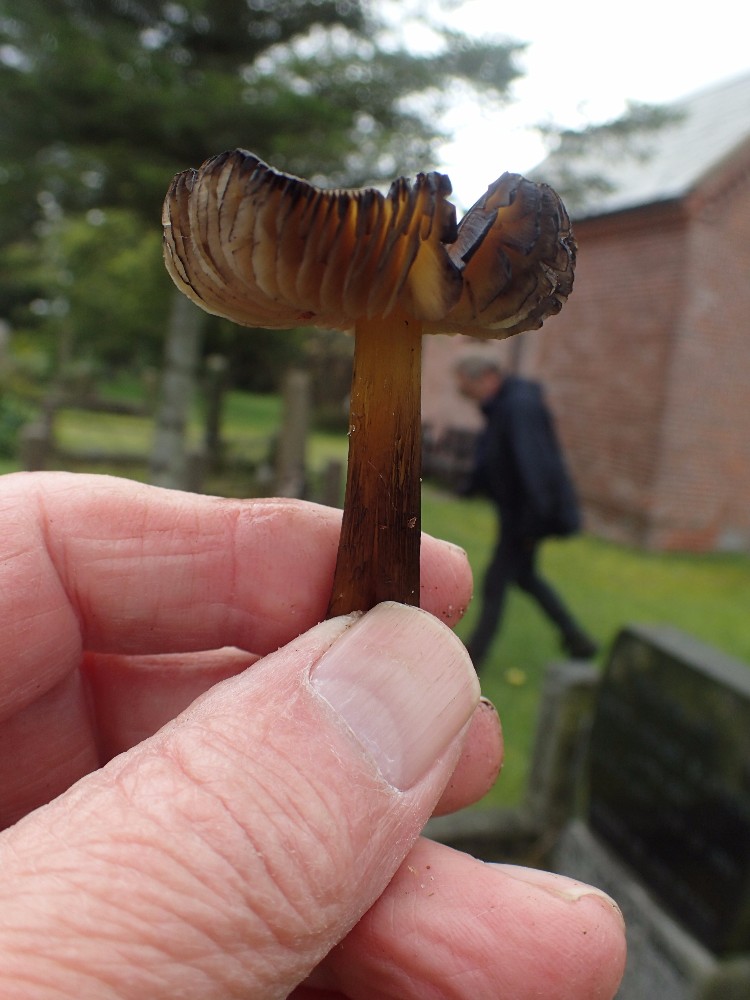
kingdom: Fungi
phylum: Basidiomycota
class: Agaricomycetes
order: Agaricales
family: Hygrophoraceae
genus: Hygrocybe
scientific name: Hygrocybe conica
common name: kegle-vokshat
